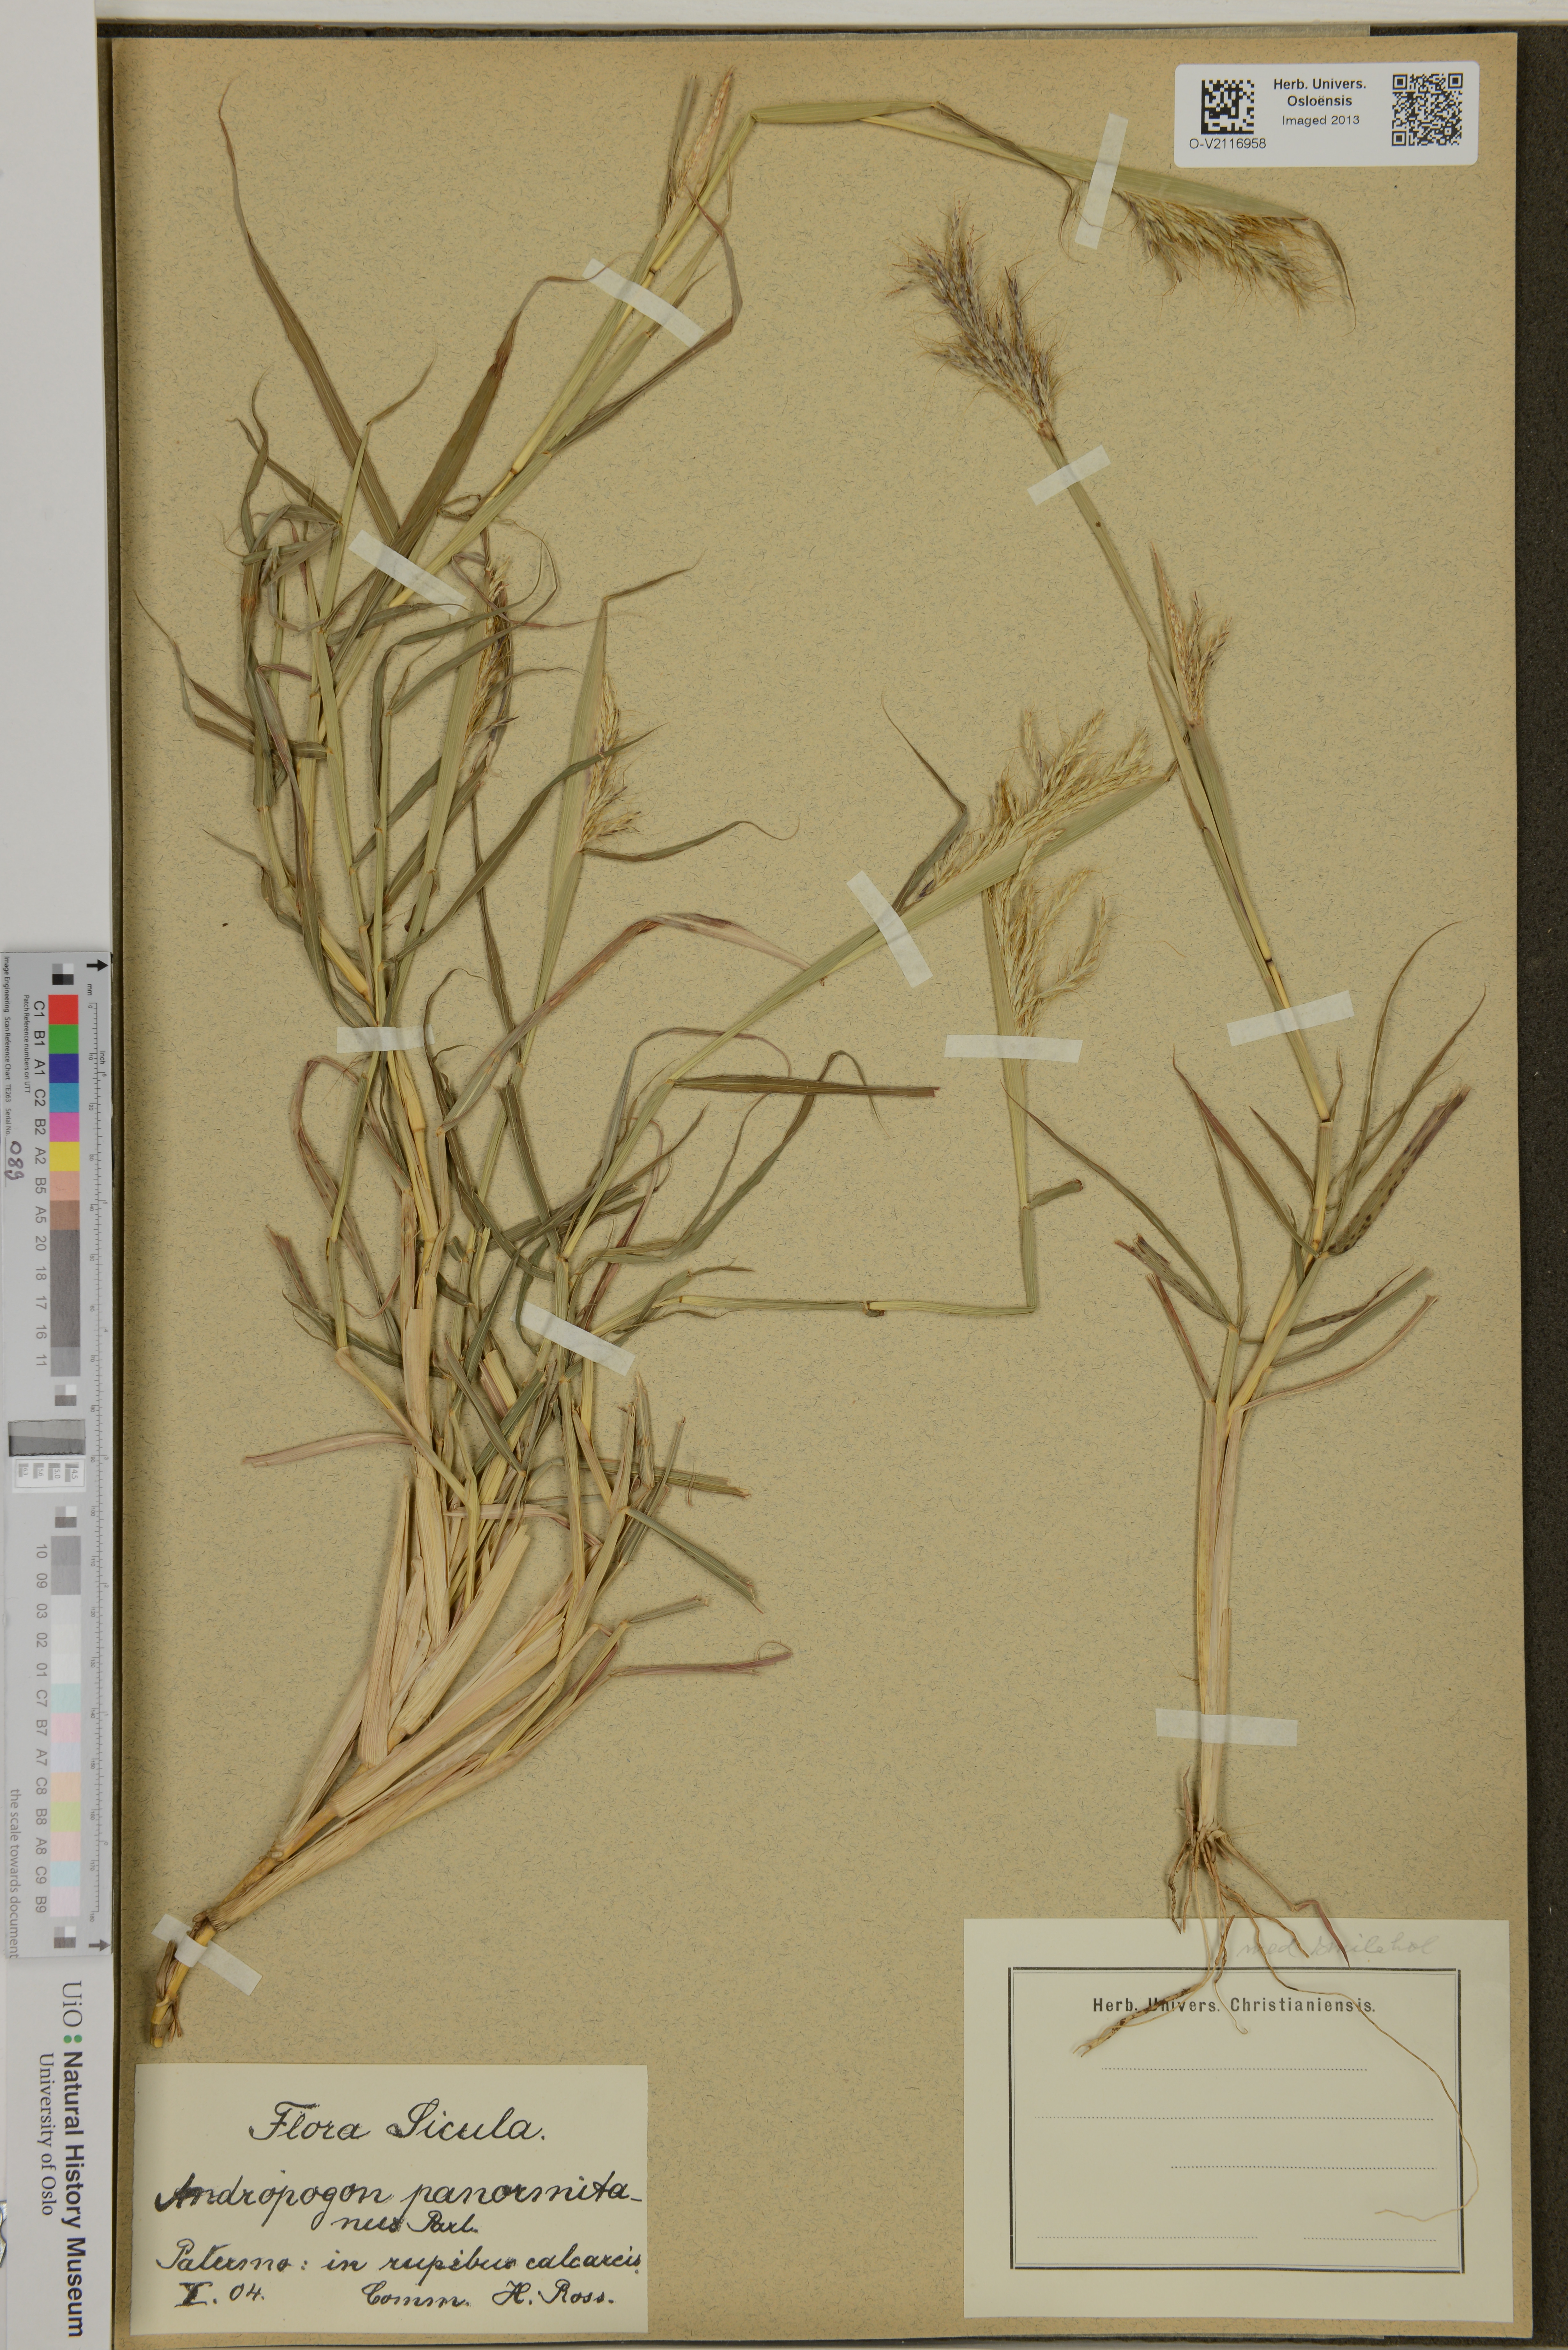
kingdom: Plantae
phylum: Tracheophyta
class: Liliopsida
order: Poales
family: Poaceae
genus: Bothriochloa
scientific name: Bothriochloa ischaemum
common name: Yellow bluestem
